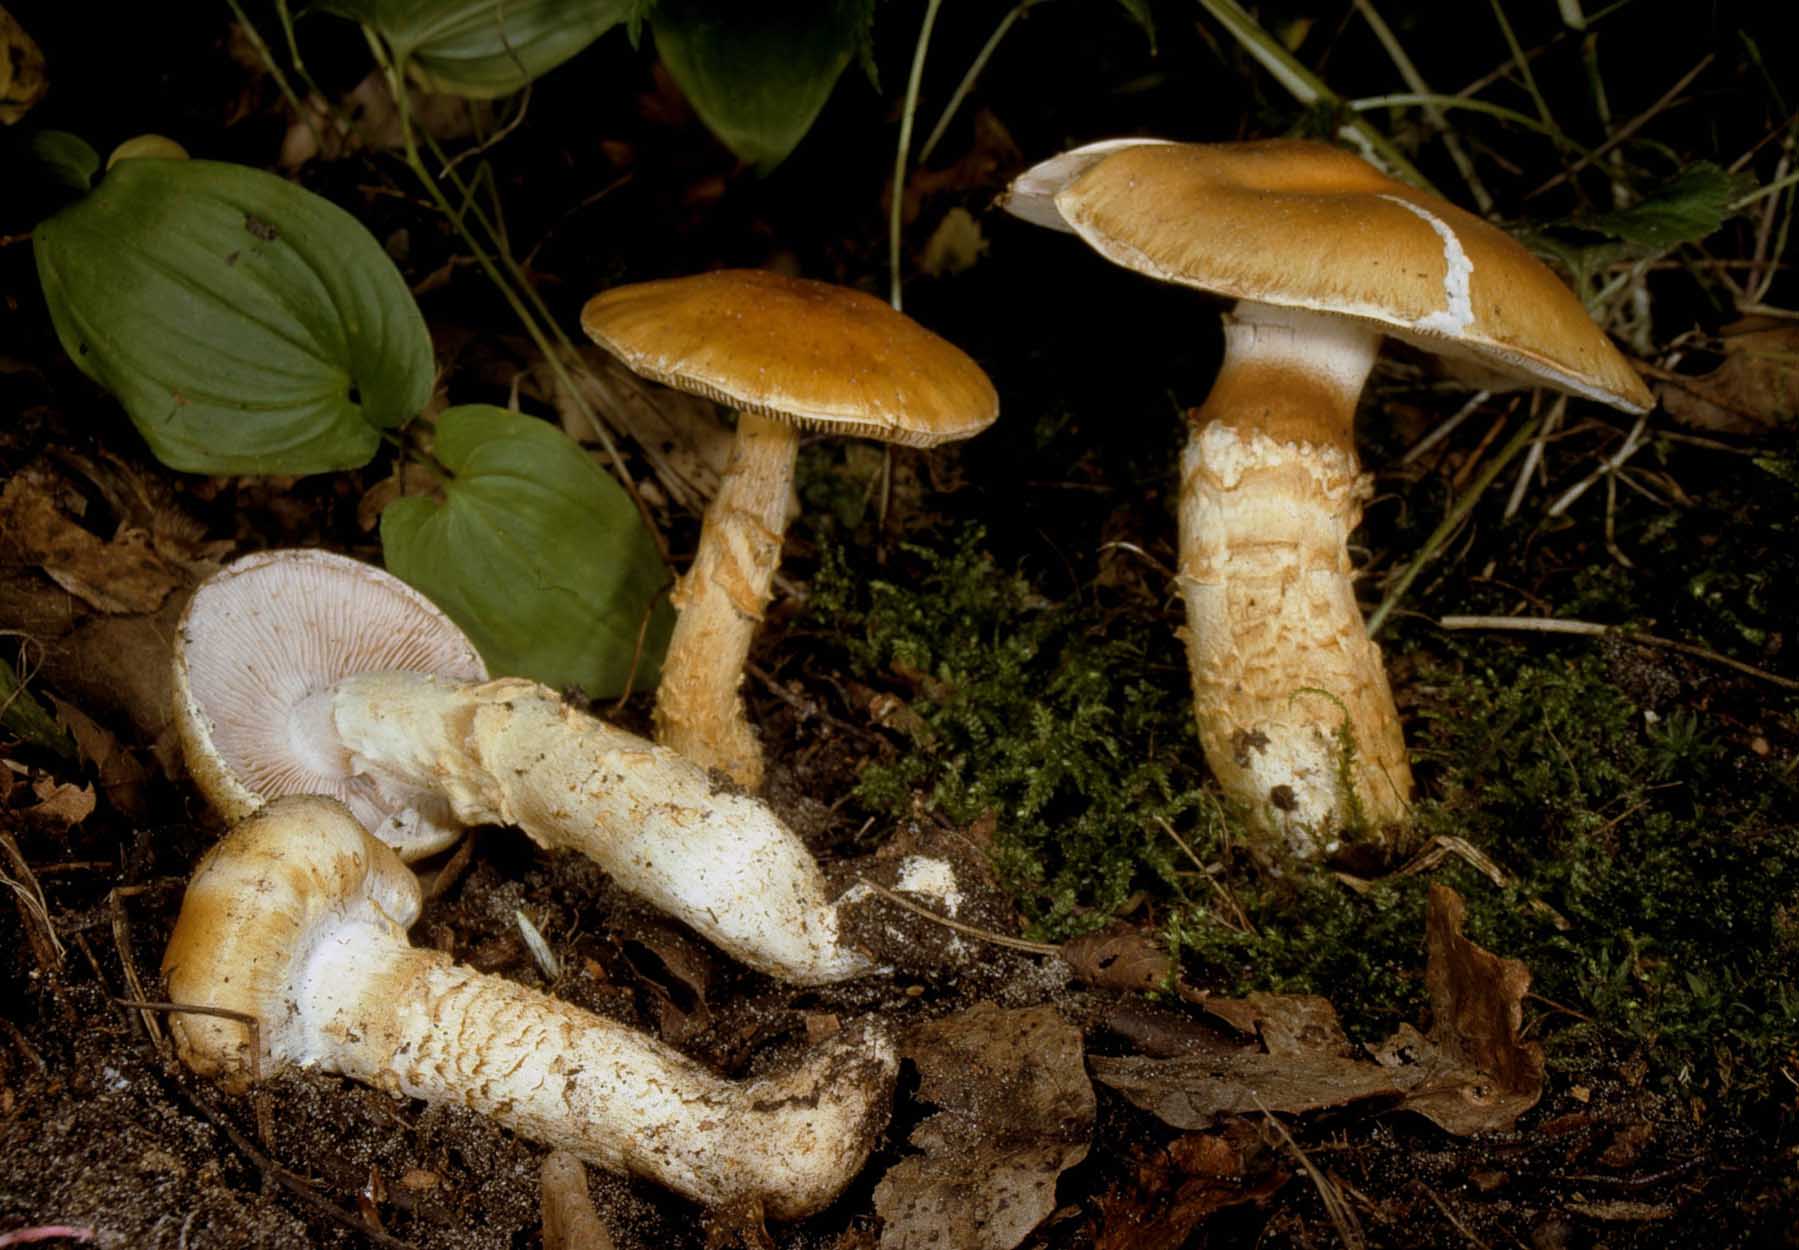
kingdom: Fungi
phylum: Basidiomycota
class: Agaricomycetes
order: Agaricales
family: Cortinariaceae
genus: Phlegmacium
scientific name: Phlegmacium triumphans
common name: gulbæltet slørhat
